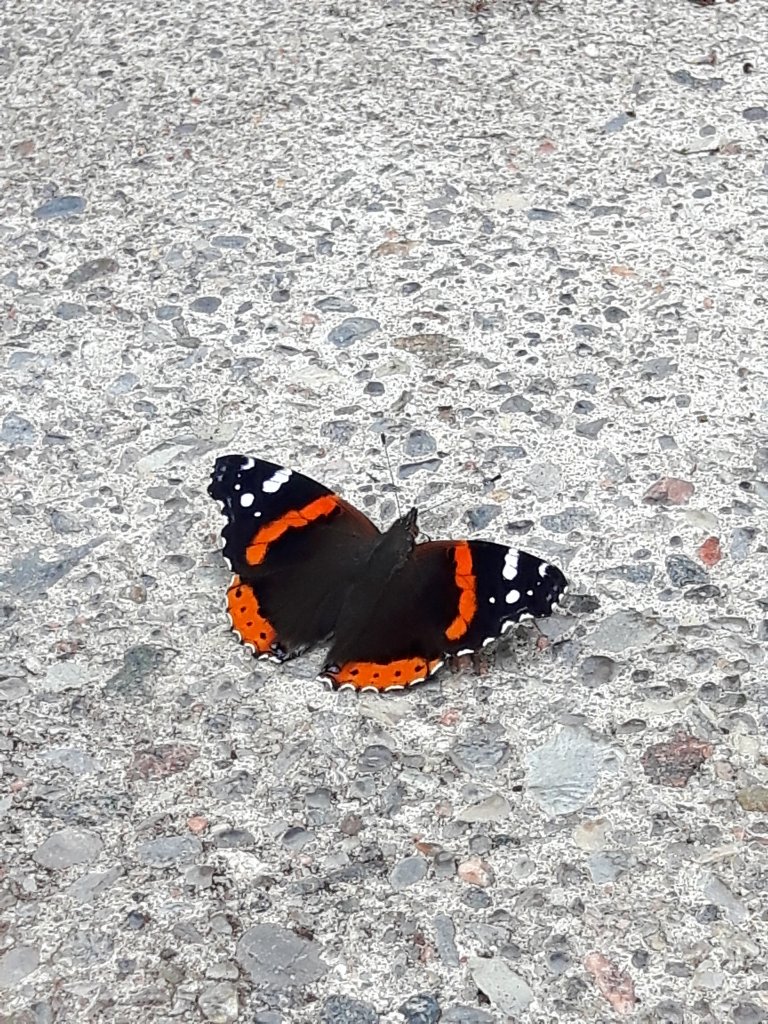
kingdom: Animalia
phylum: Arthropoda
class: Insecta
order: Lepidoptera
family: Nymphalidae
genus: Vanessa
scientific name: Vanessa atalanta
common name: Red Admiral
